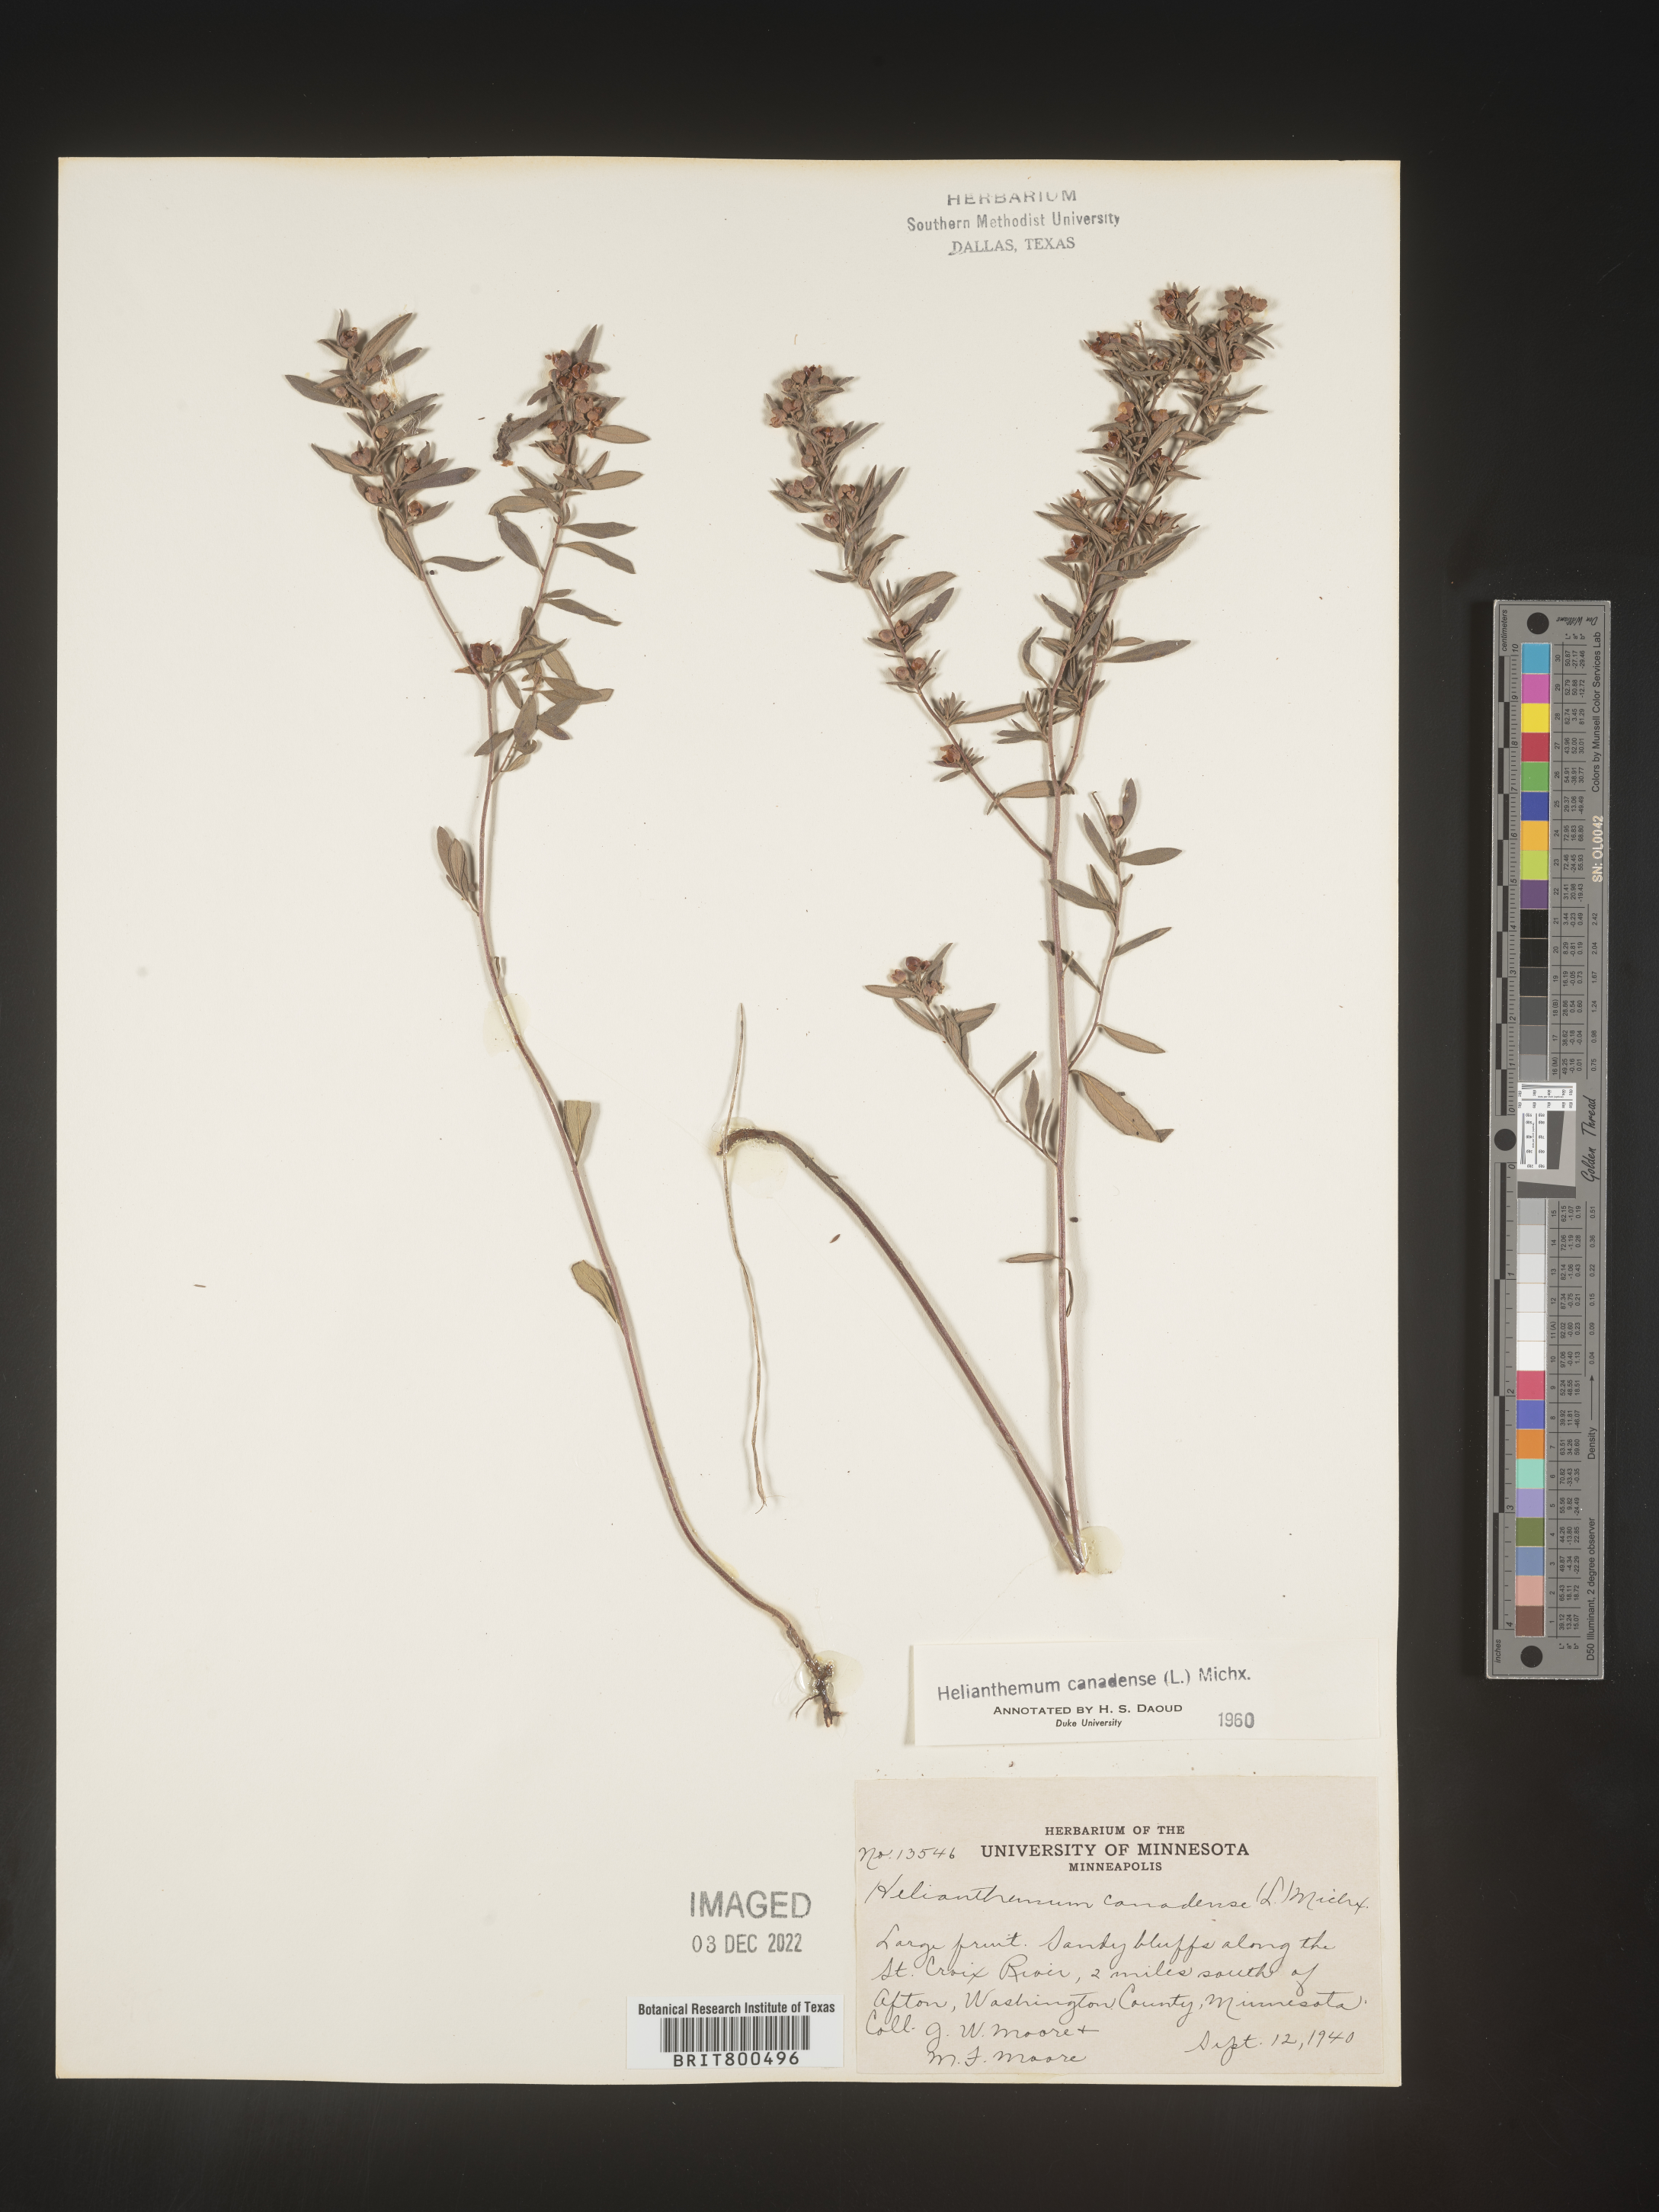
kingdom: Plantae
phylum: Tracheophyta
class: Magnoliopsida
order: Malvales
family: Cistaceae
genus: Crocanthemum
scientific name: Crocanthemum canadense
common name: Canada frostweed
